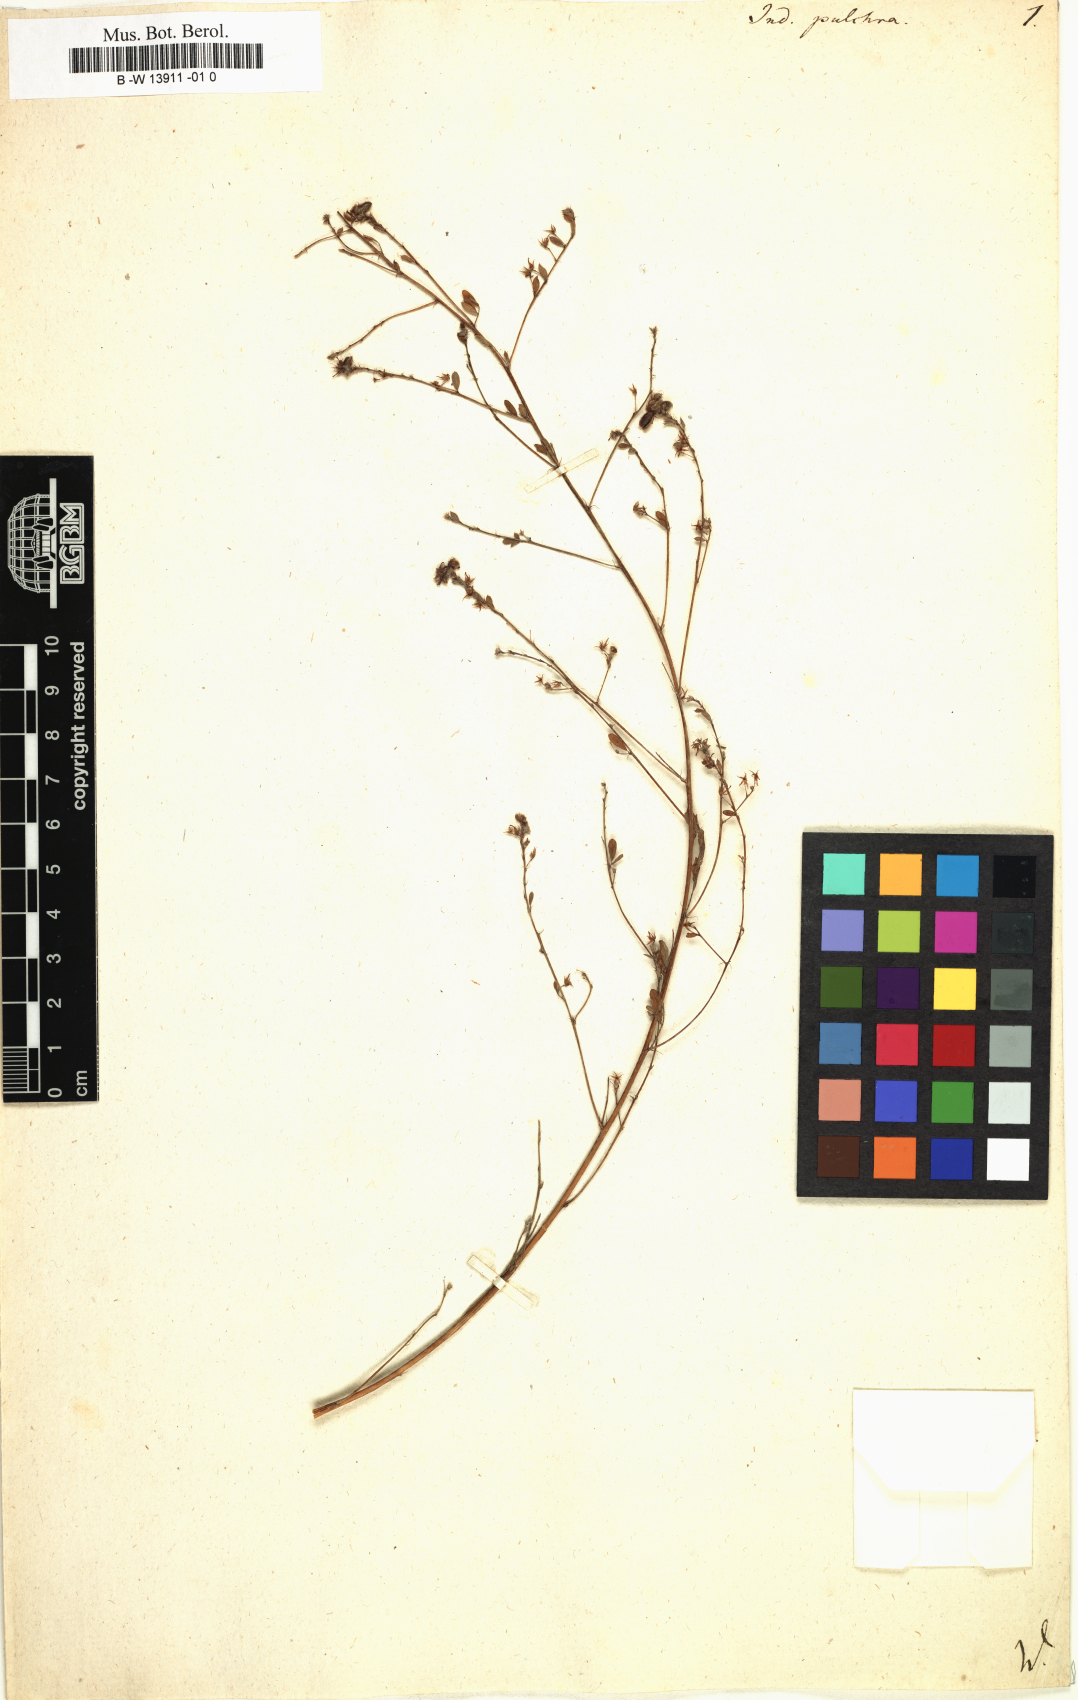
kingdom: Plantae
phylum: Tracheophyta
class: Magnoliopsida
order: Fabales
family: Fabaceae
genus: Indigofera
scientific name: Indigofera pulchra
